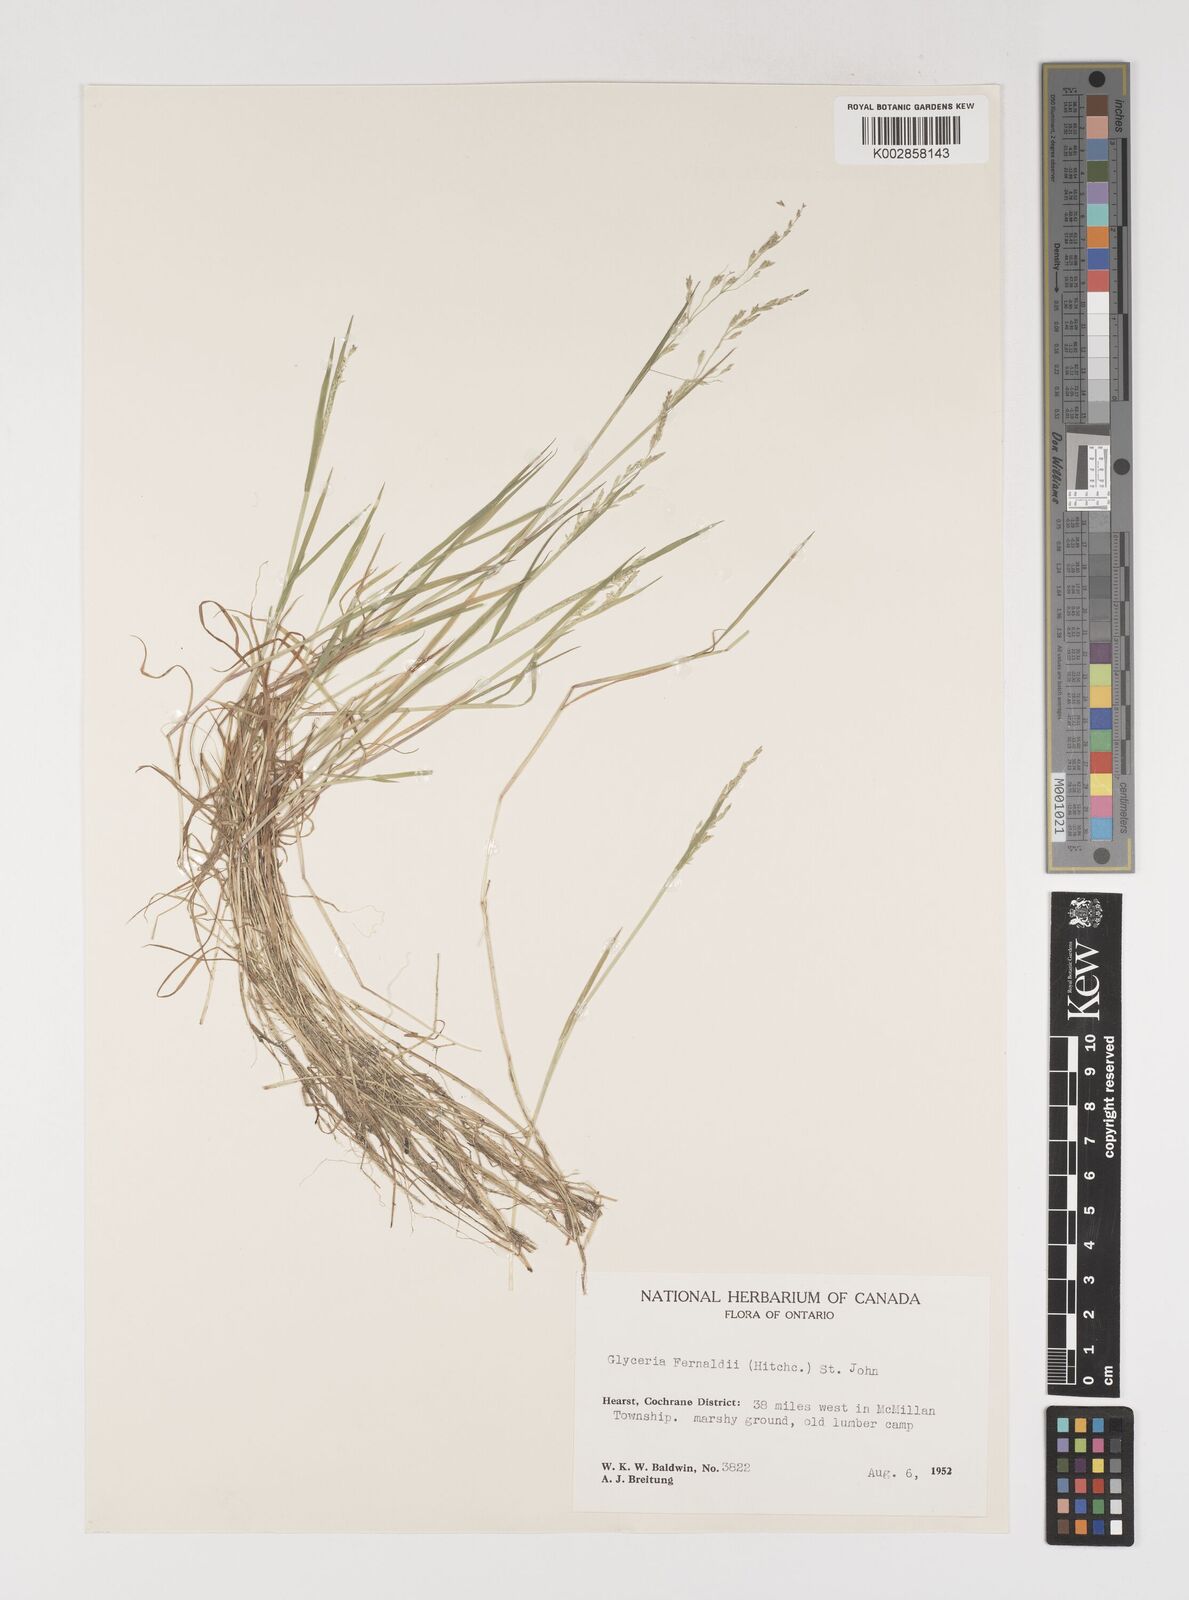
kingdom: Plantae
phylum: Tracheophyta
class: Liliopsida
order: Poales
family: Poaceae
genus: Torreyochloa
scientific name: Torreyochloa pallida
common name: Pale false mannagrass
